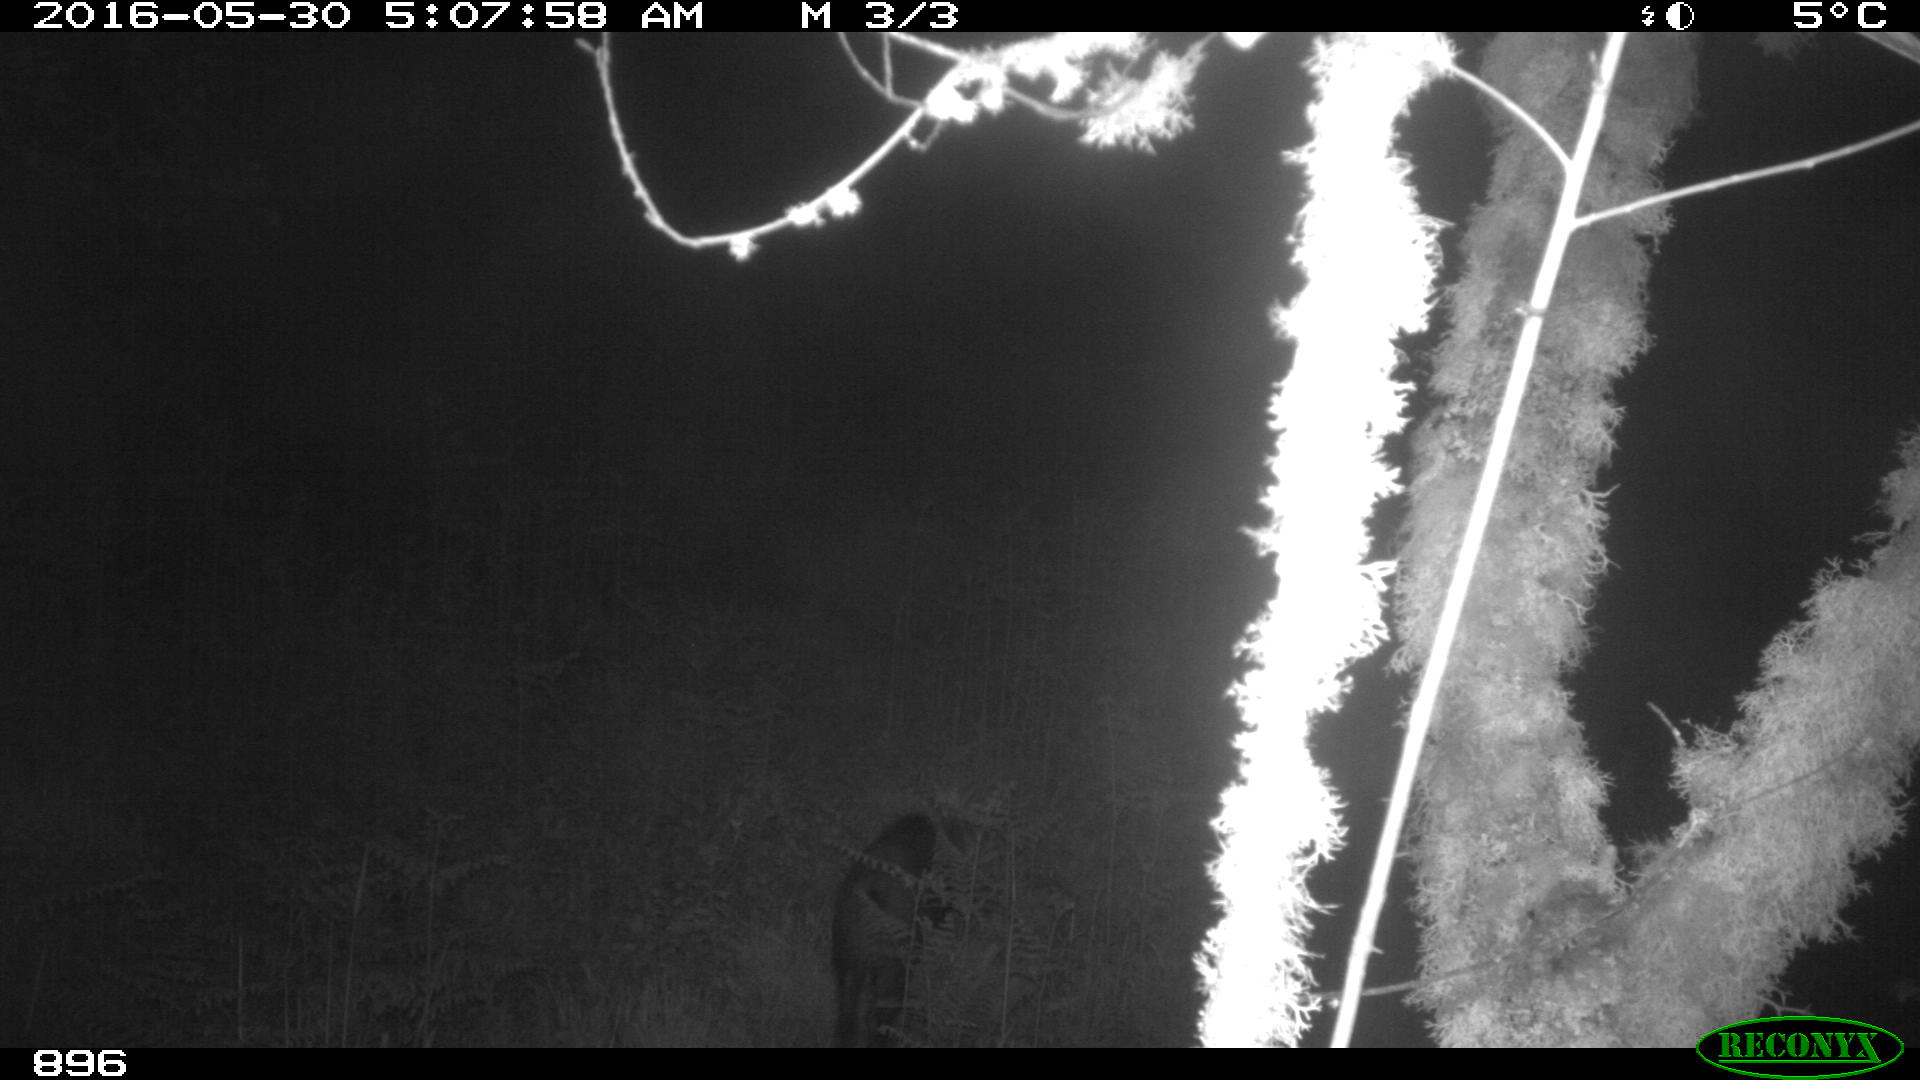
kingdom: Animalia
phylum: Chordata
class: Mammalia
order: Artiodactyla
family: Suidae
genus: Sus
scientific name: Sus scrofa
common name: Wild boar
